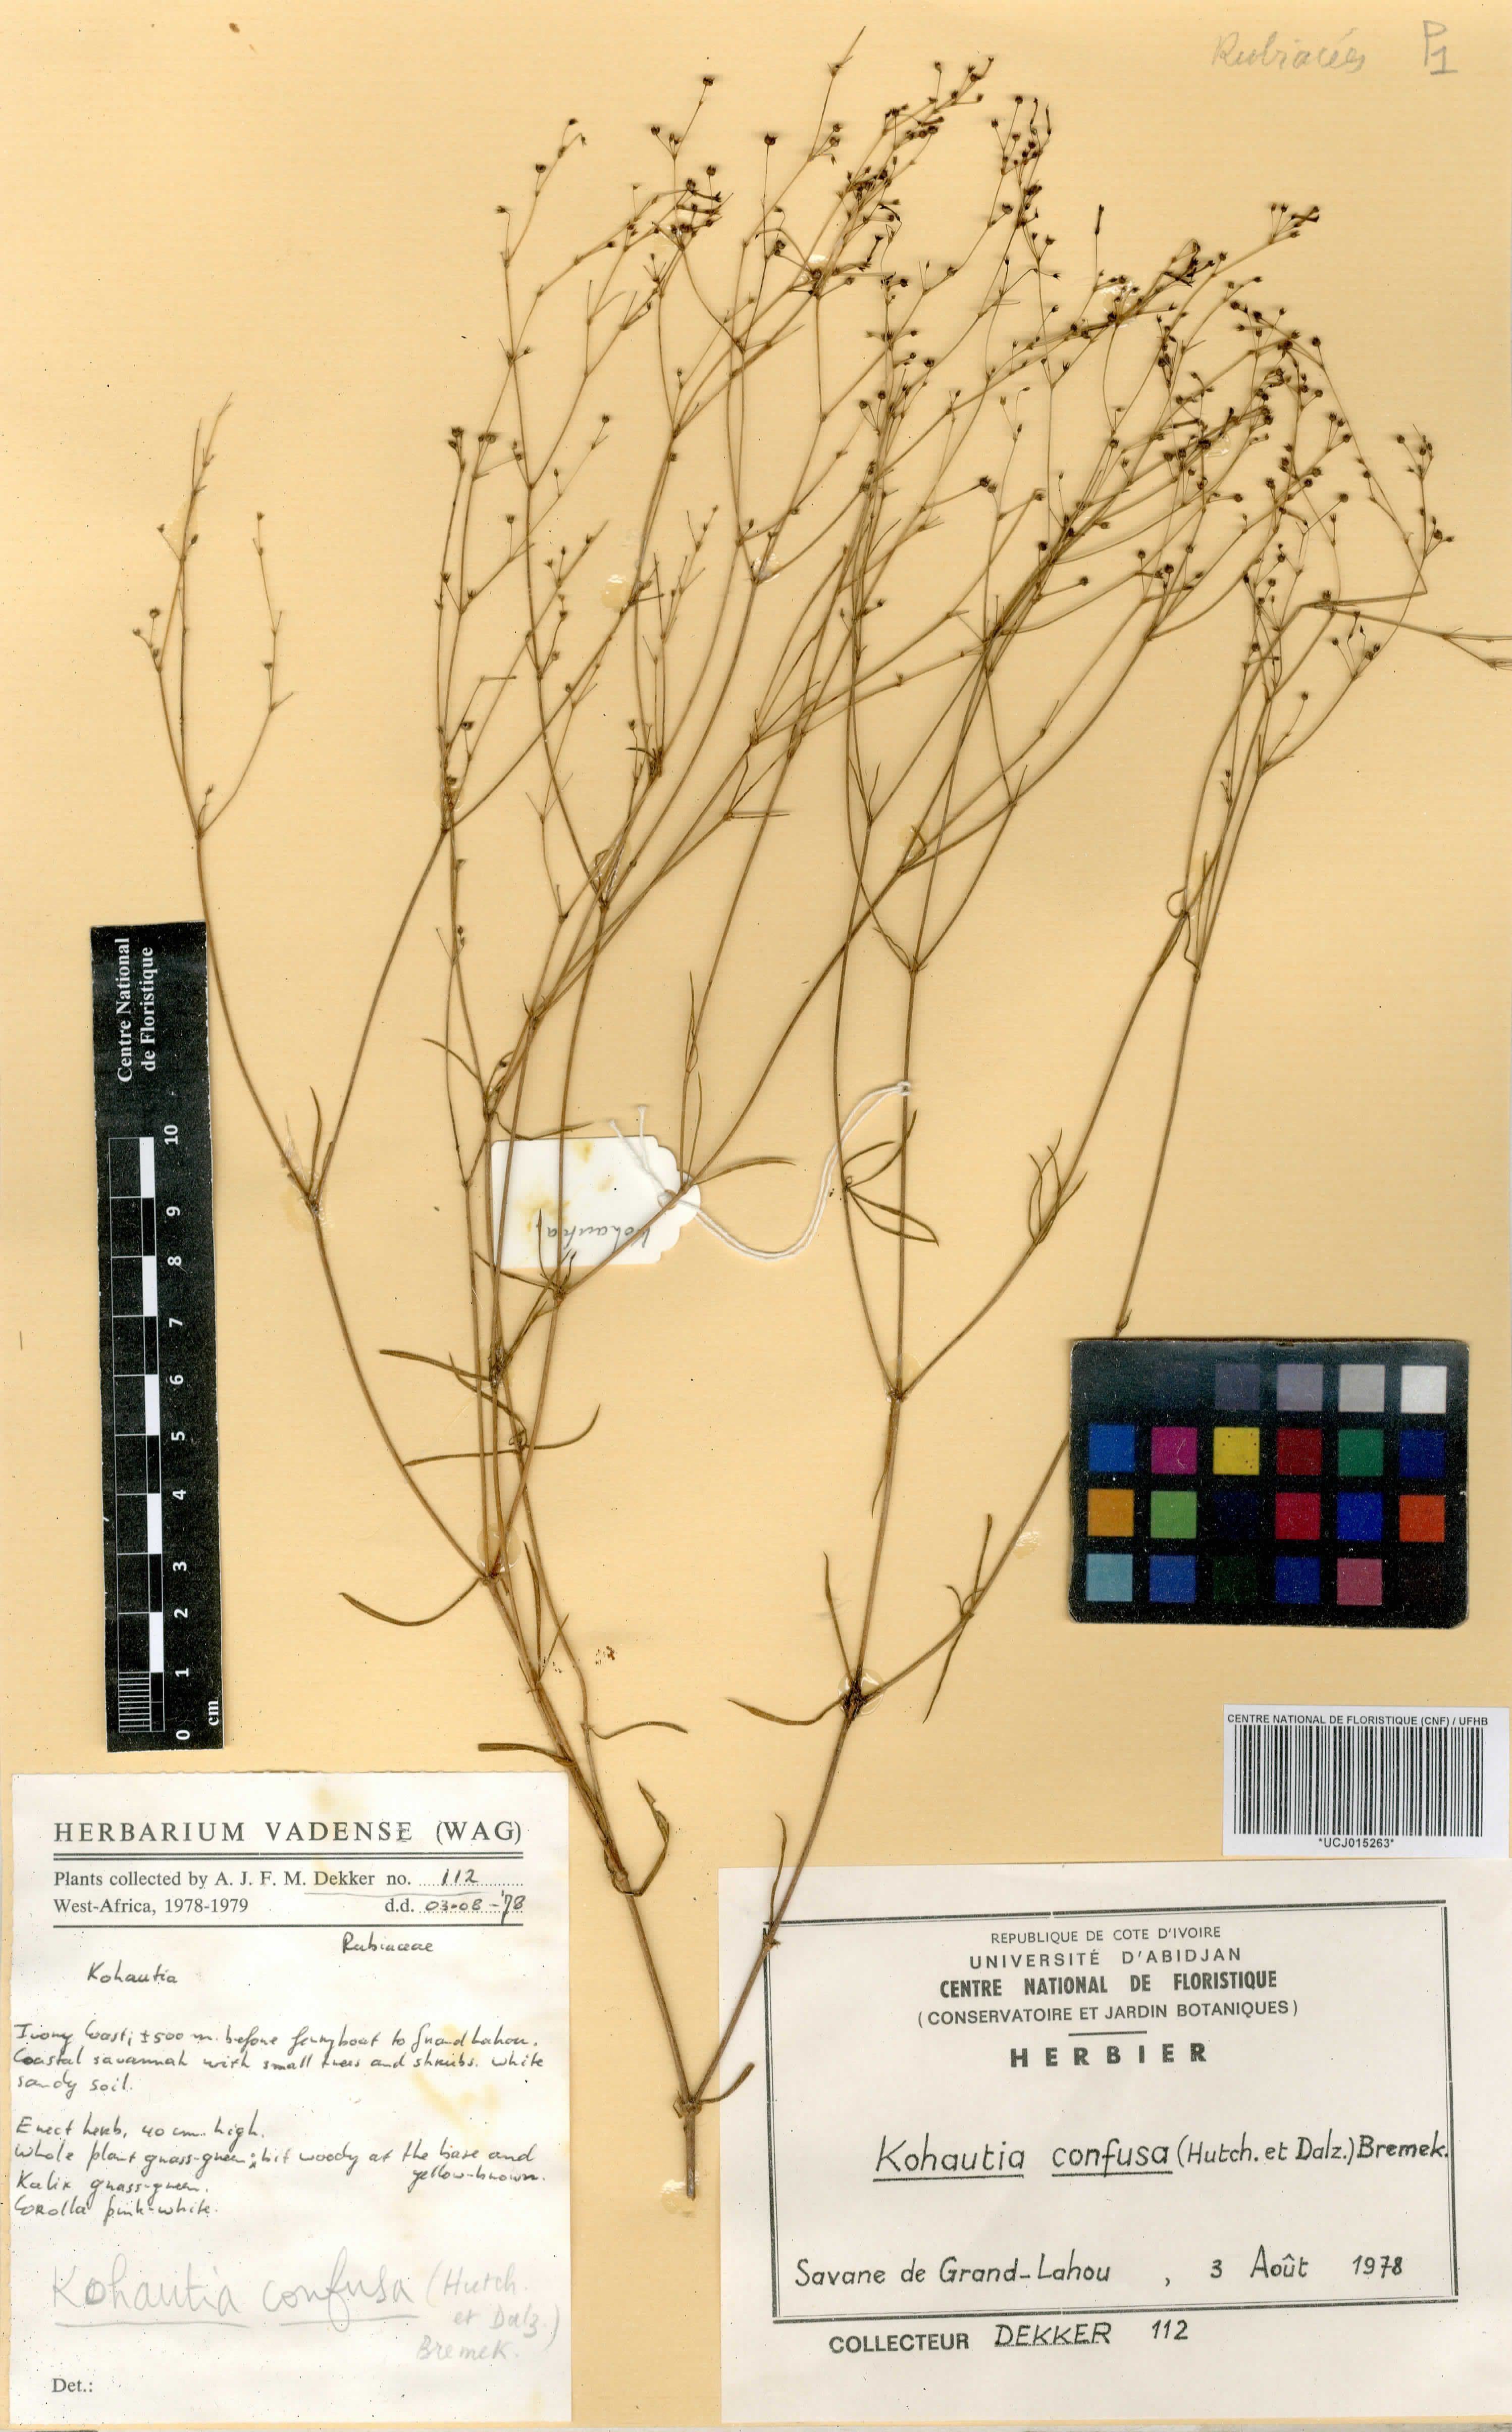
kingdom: Plantae
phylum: Tracheophyta
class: Magnoliopsida
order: Gentianales
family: Rubiaceae
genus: Kohautia
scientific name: Kohautia confusa
